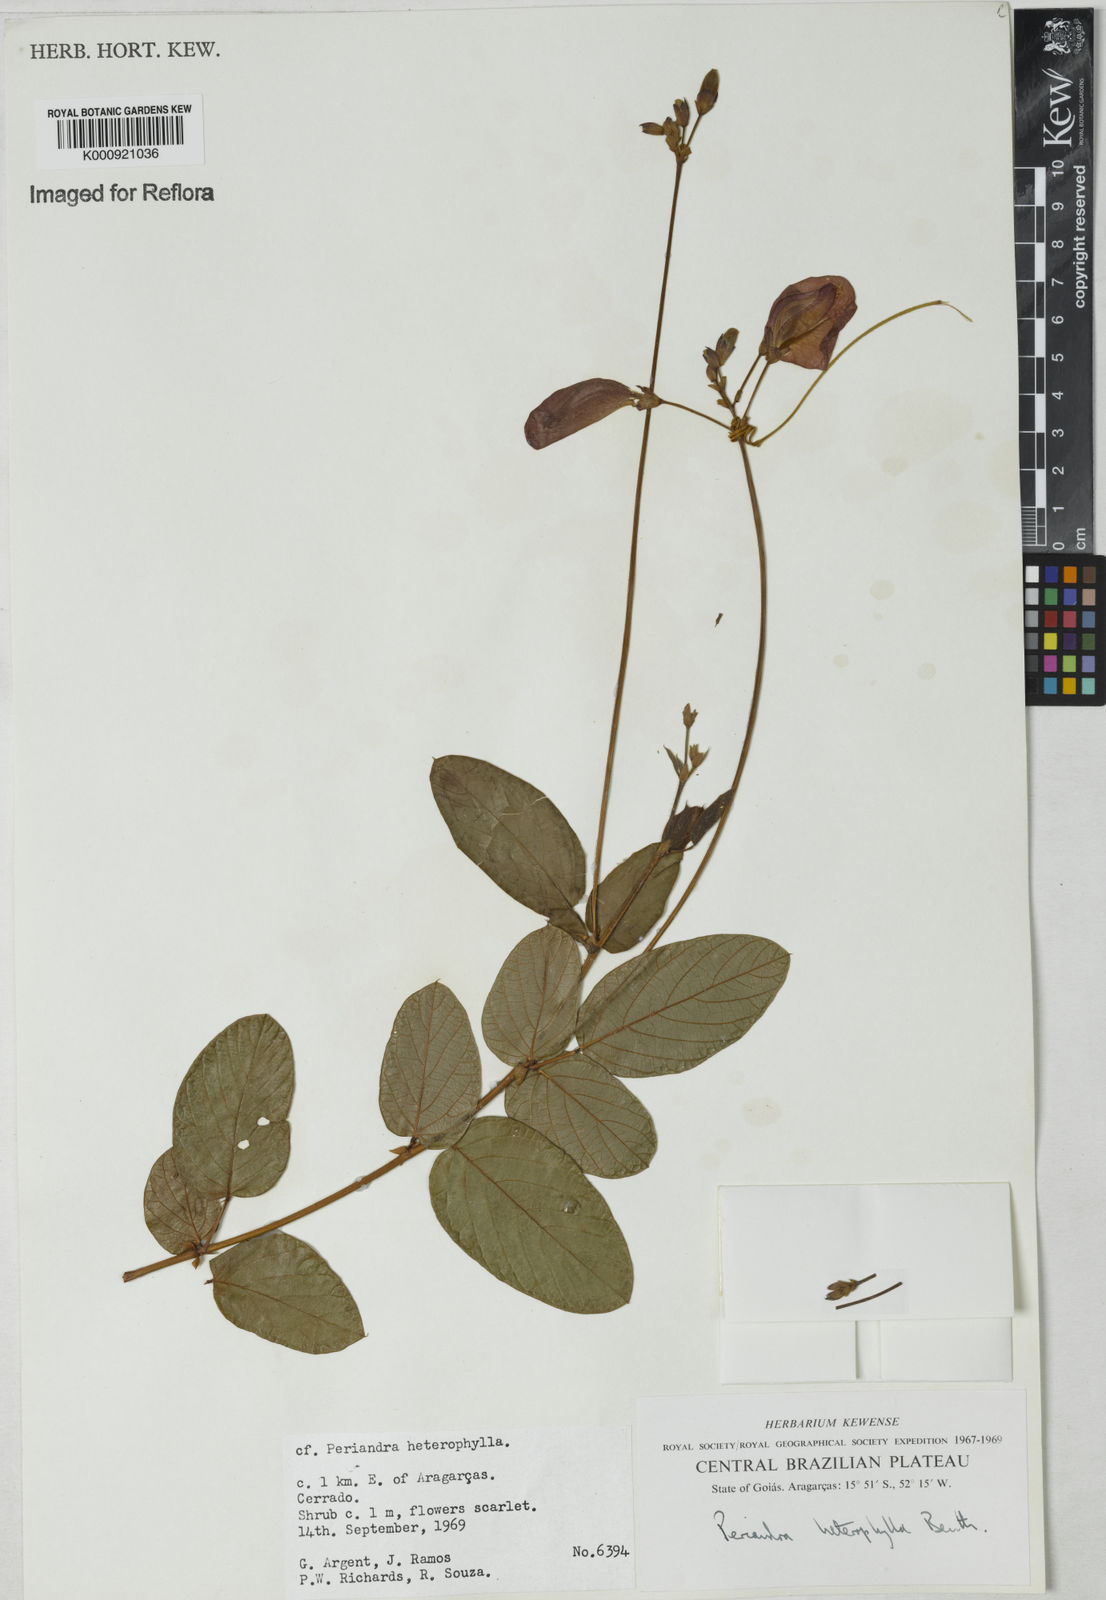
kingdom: Plantae
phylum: Tracheophyta
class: Magnoliopsida
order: Fabales
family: Fabaceae
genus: Periandra
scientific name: Periandra heterophylla
